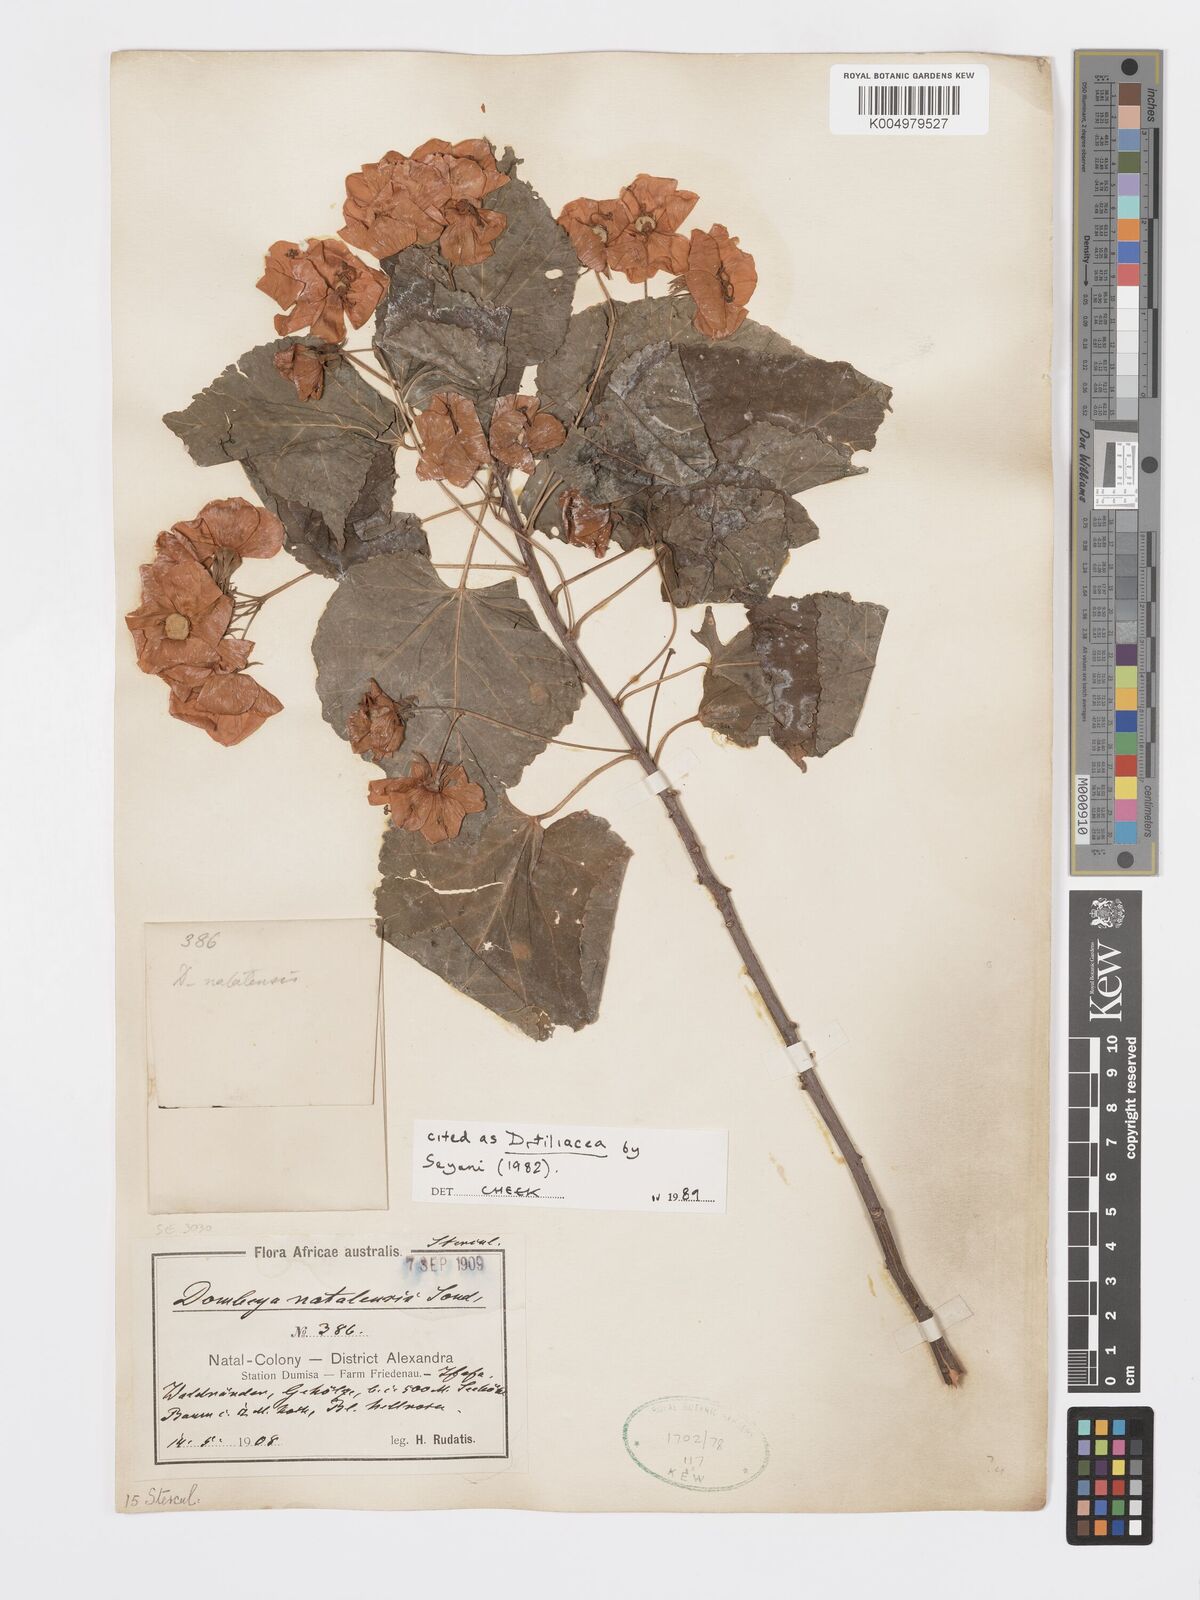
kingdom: Plantae
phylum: Tracheophyta
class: Magnoliopsida
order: Malvales
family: Malvaceae
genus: Dombeya
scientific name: Dombeya tiliacea
